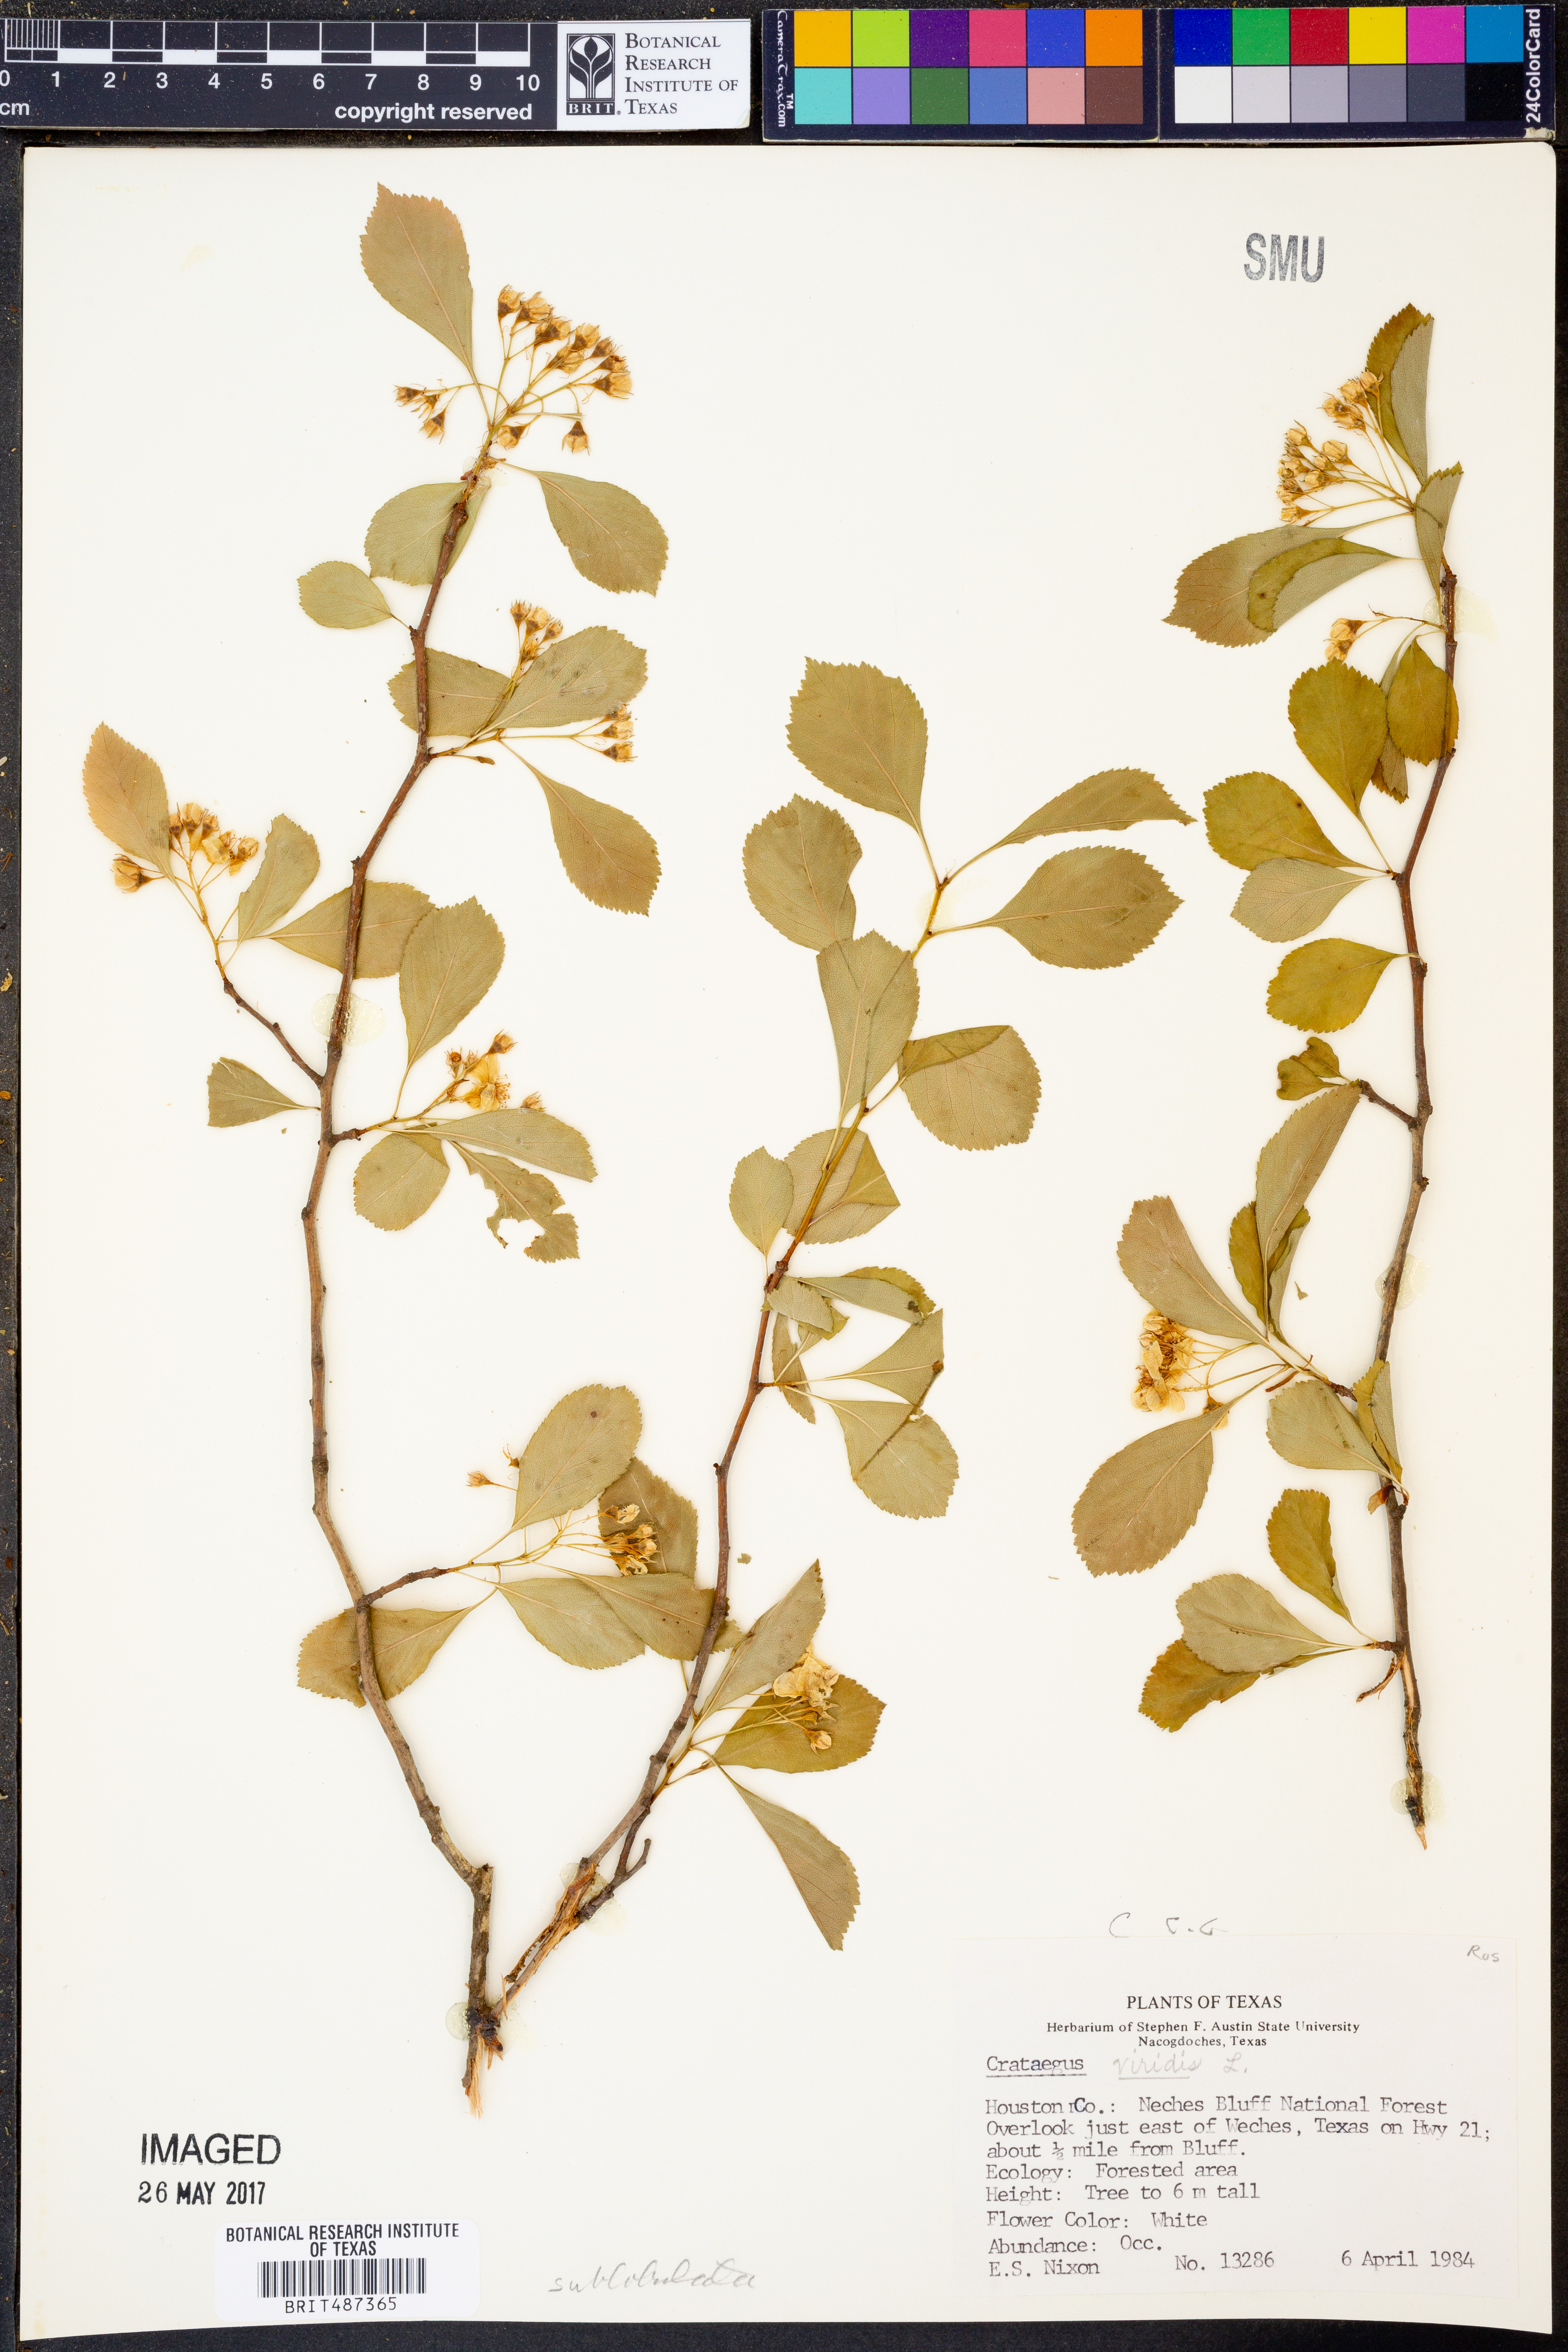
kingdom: Plantae
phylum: Tracheophyta
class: Magnoliopsida
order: Rosales
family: Rosaceae
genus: Crataegus
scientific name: Crataegus viridis
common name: Southernthorn
